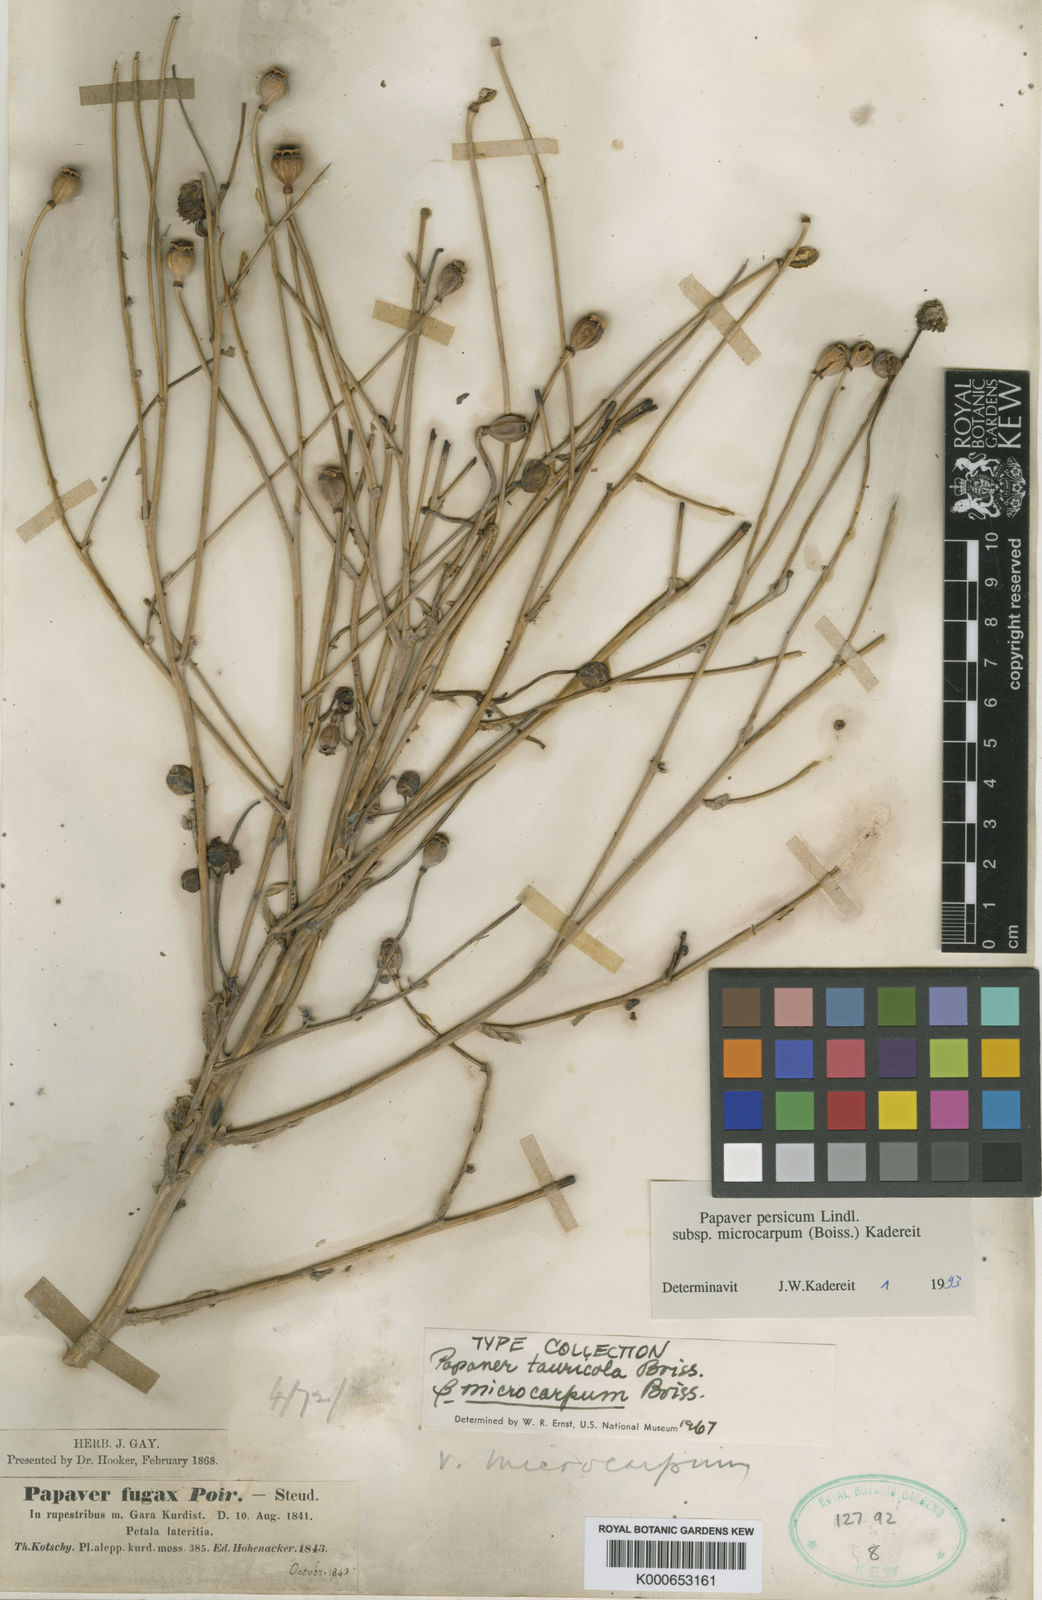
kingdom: Plantae
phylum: Tracheophyta
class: Magnoliopsida
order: Ranunculales
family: Papaveraceae
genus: Papaver
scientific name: Papaver acrochaetum
